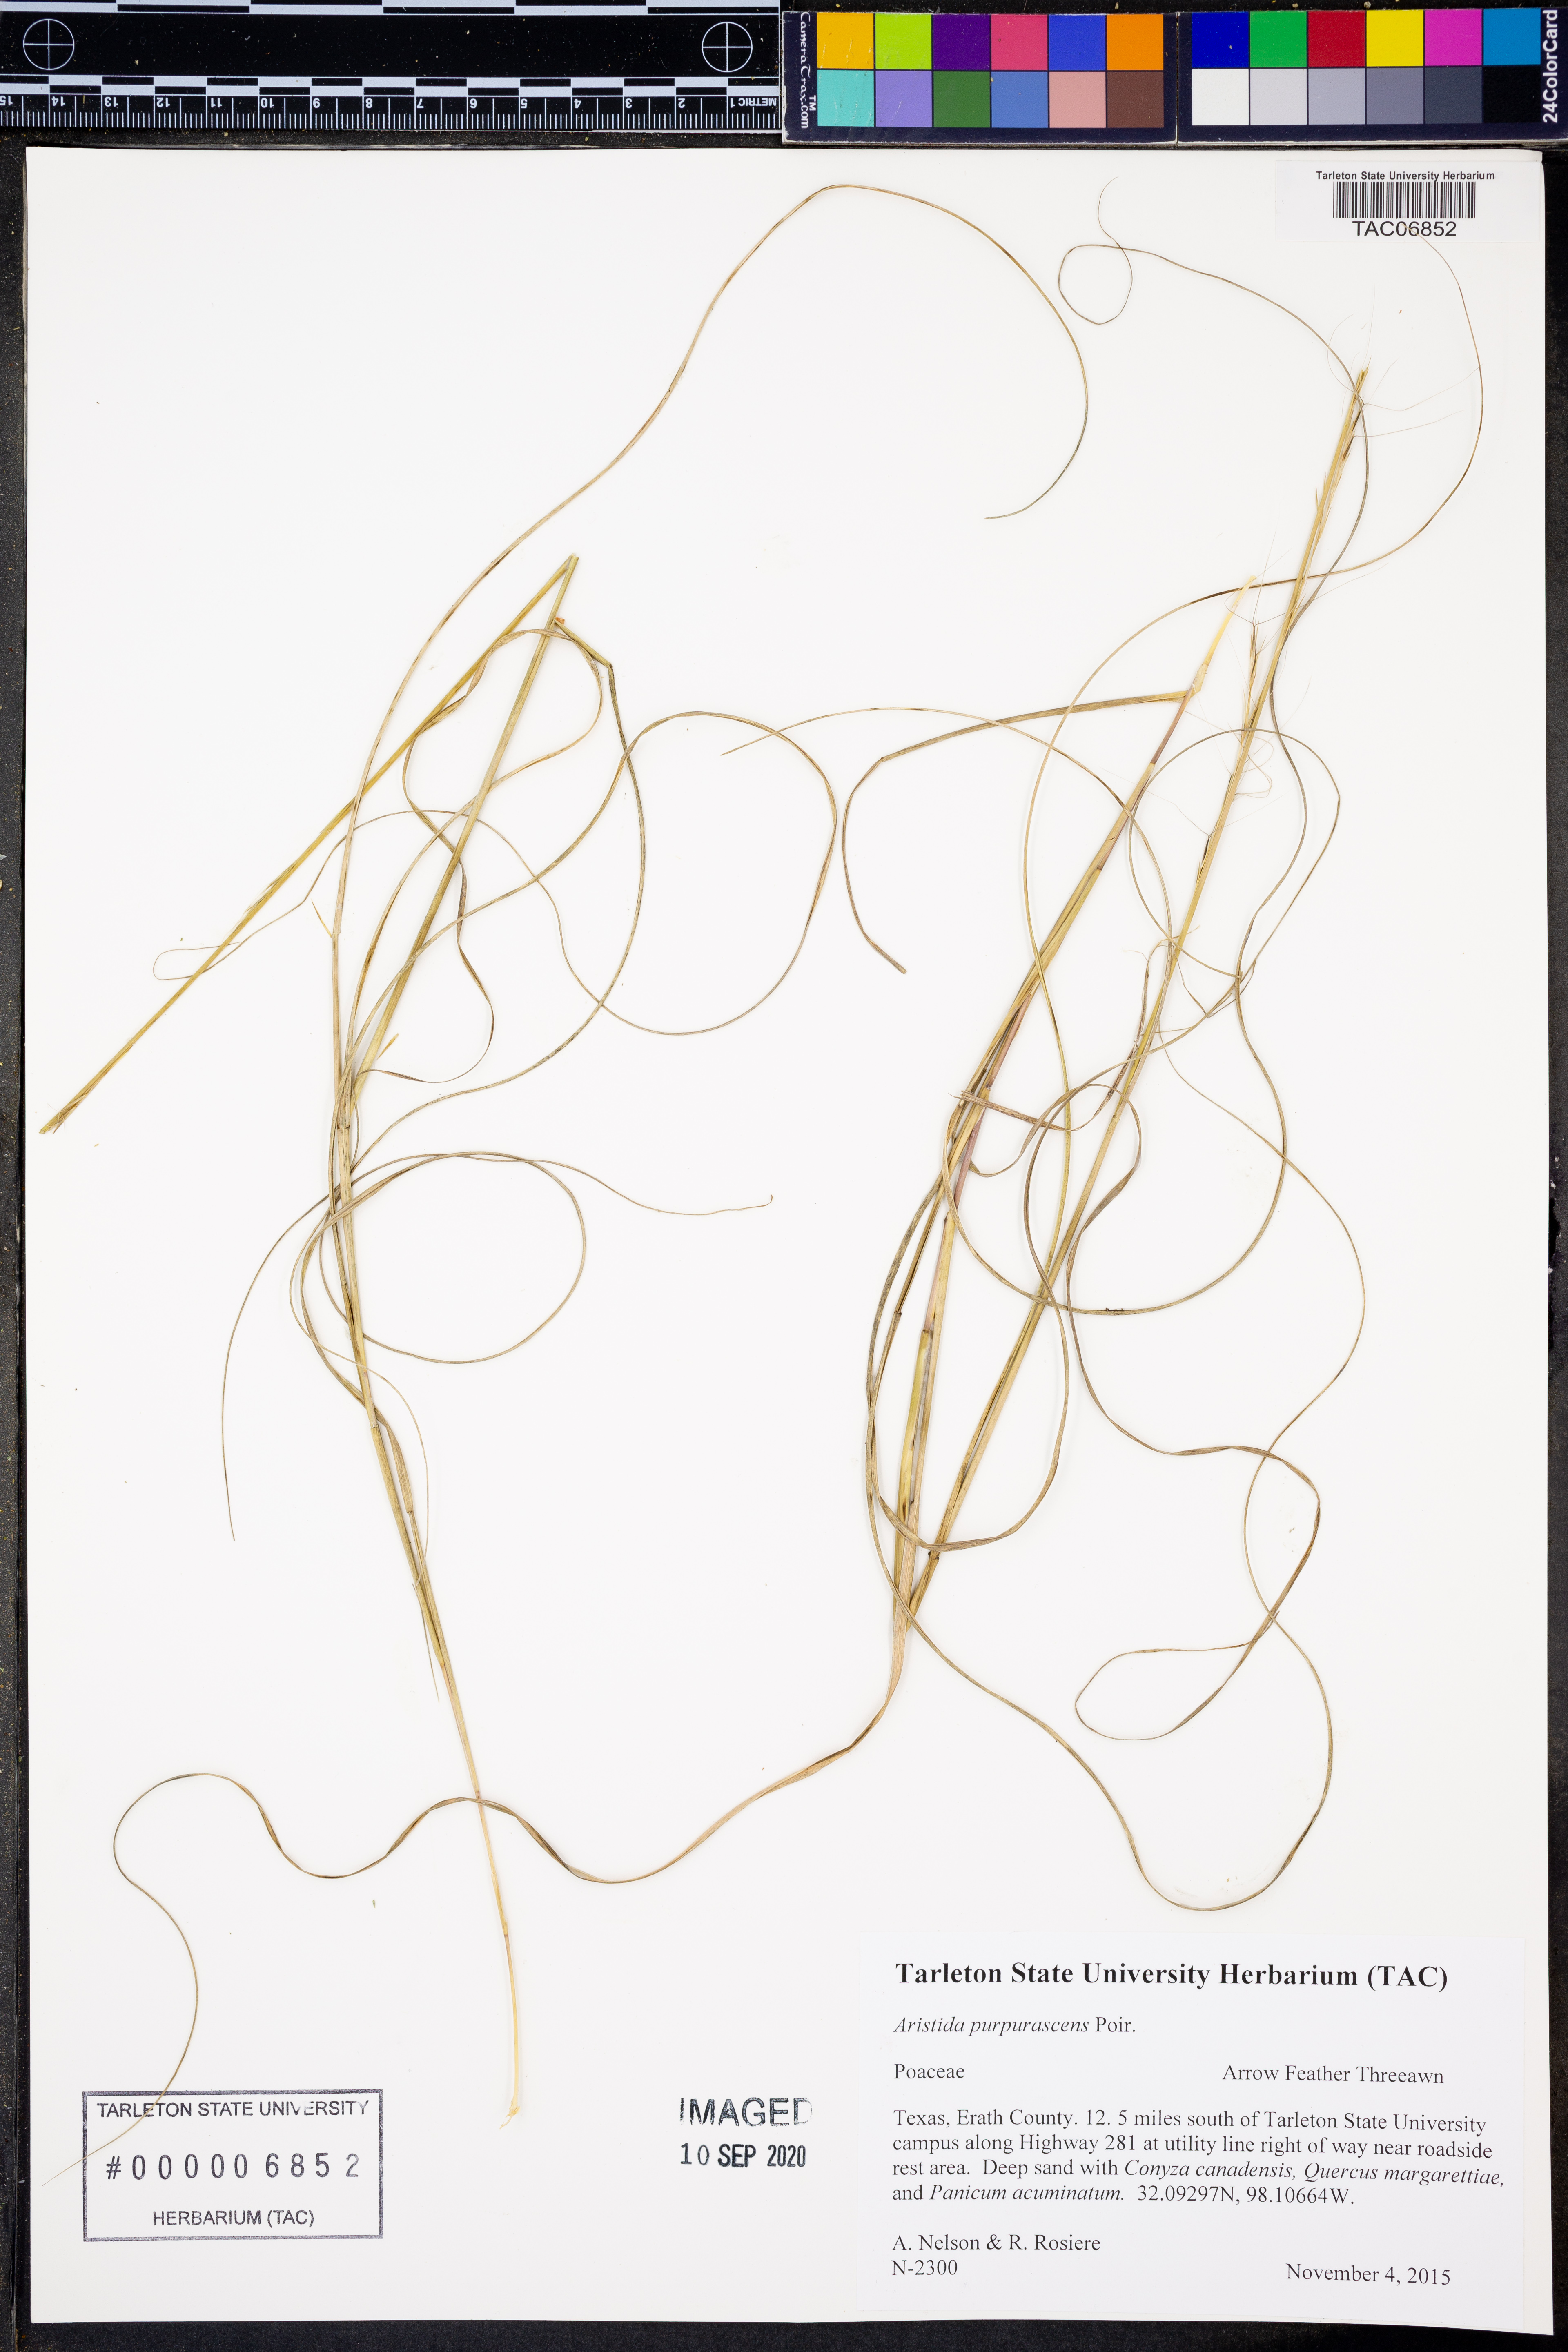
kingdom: Plantae
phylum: Tracheophyta
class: Liliopsida
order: Poales
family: Poaceae
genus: Aristida
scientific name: Aristida purpurascens
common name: Arrow-feather
